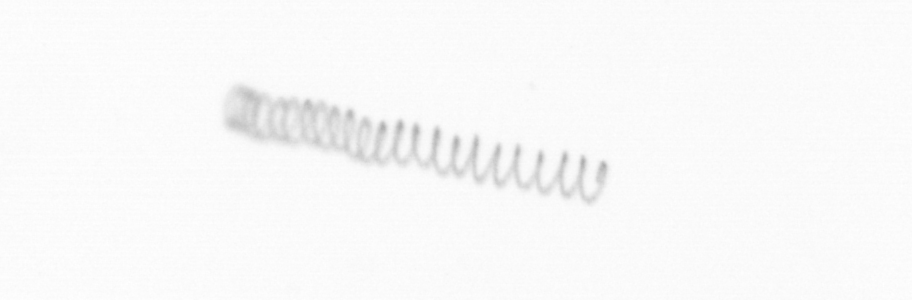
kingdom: Chromista
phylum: Ochrophyta
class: Bacillariophyceae
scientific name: Bacillariophyceae
